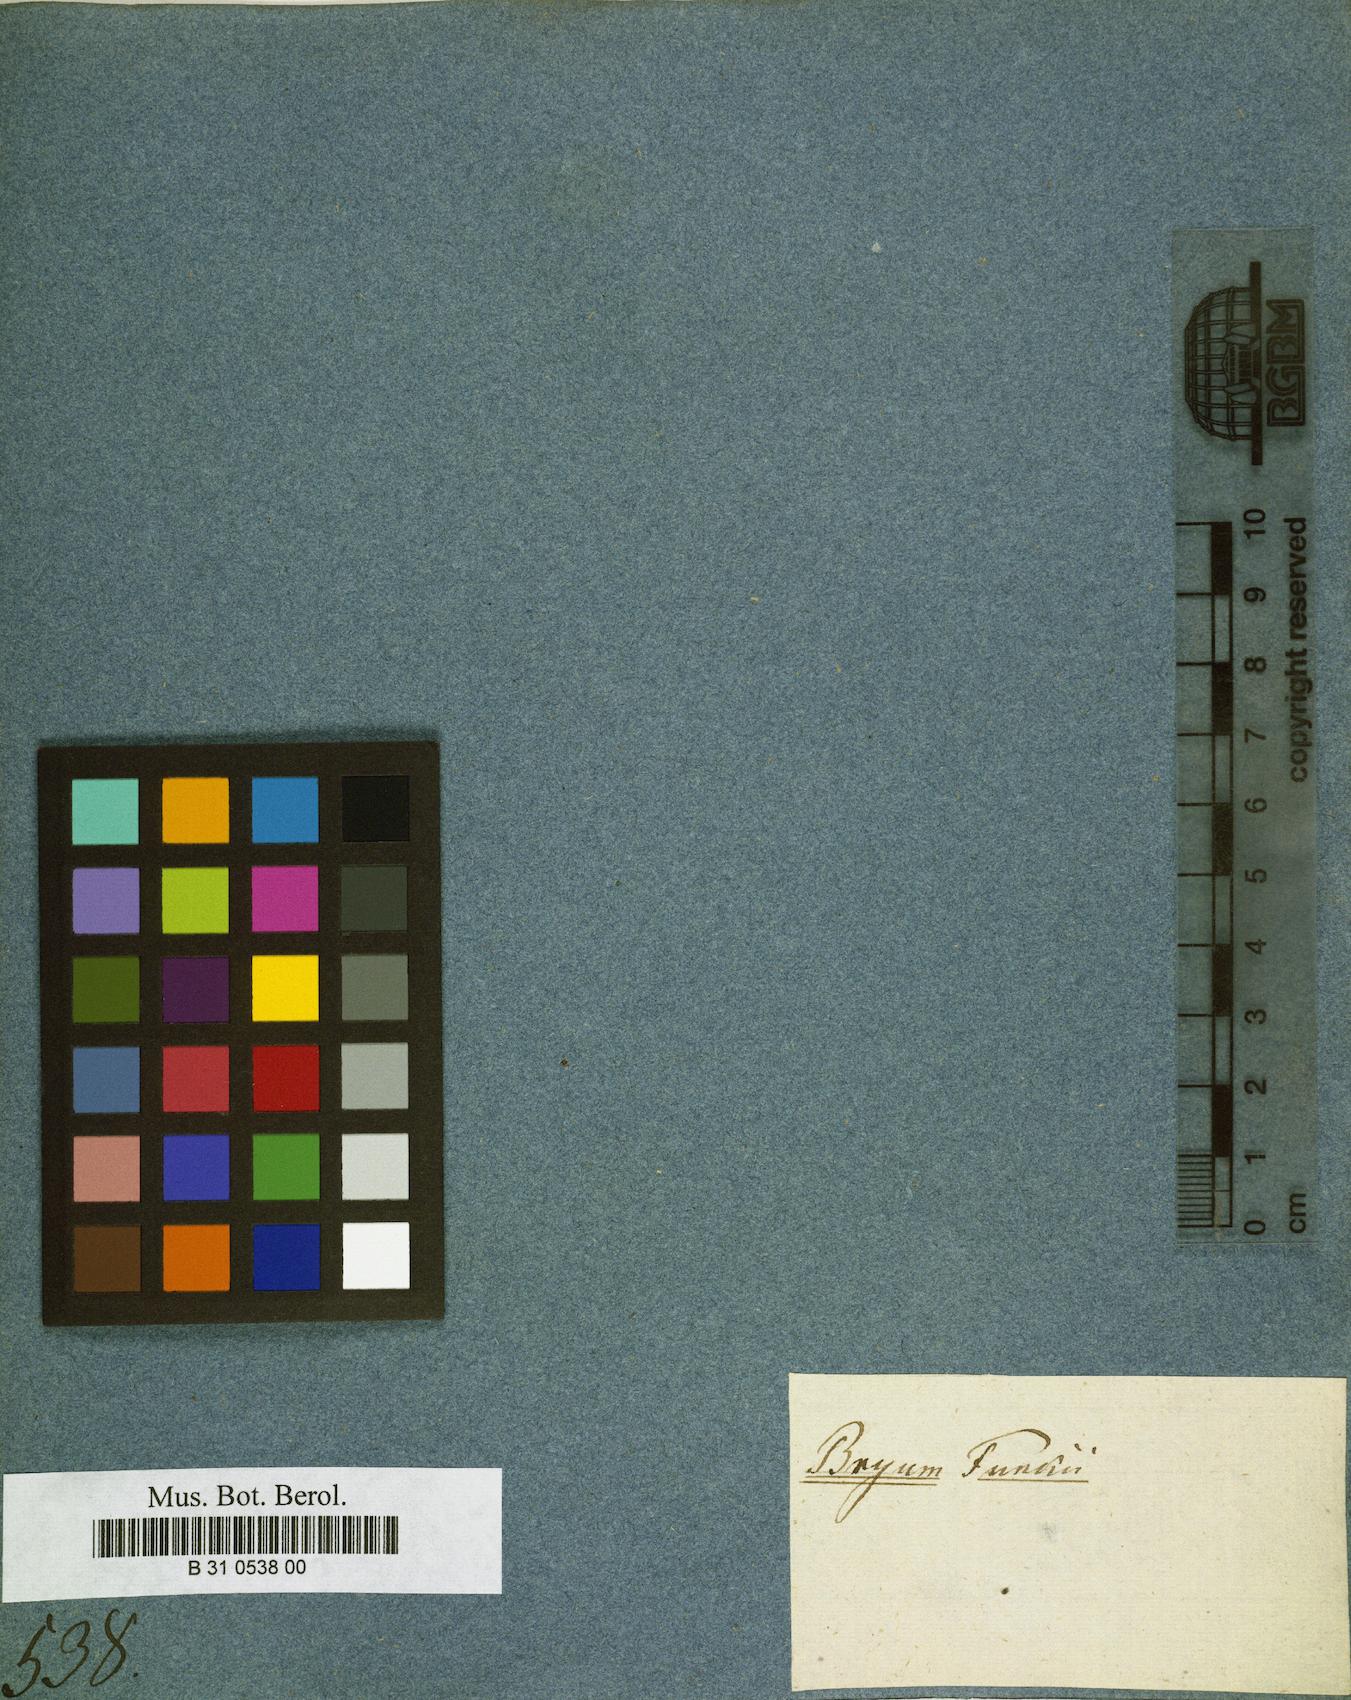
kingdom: Plantae
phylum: Bryophyta
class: Bryopsida
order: Bryales
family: Bryaceae
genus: Bryum
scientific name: Bryum funckii
